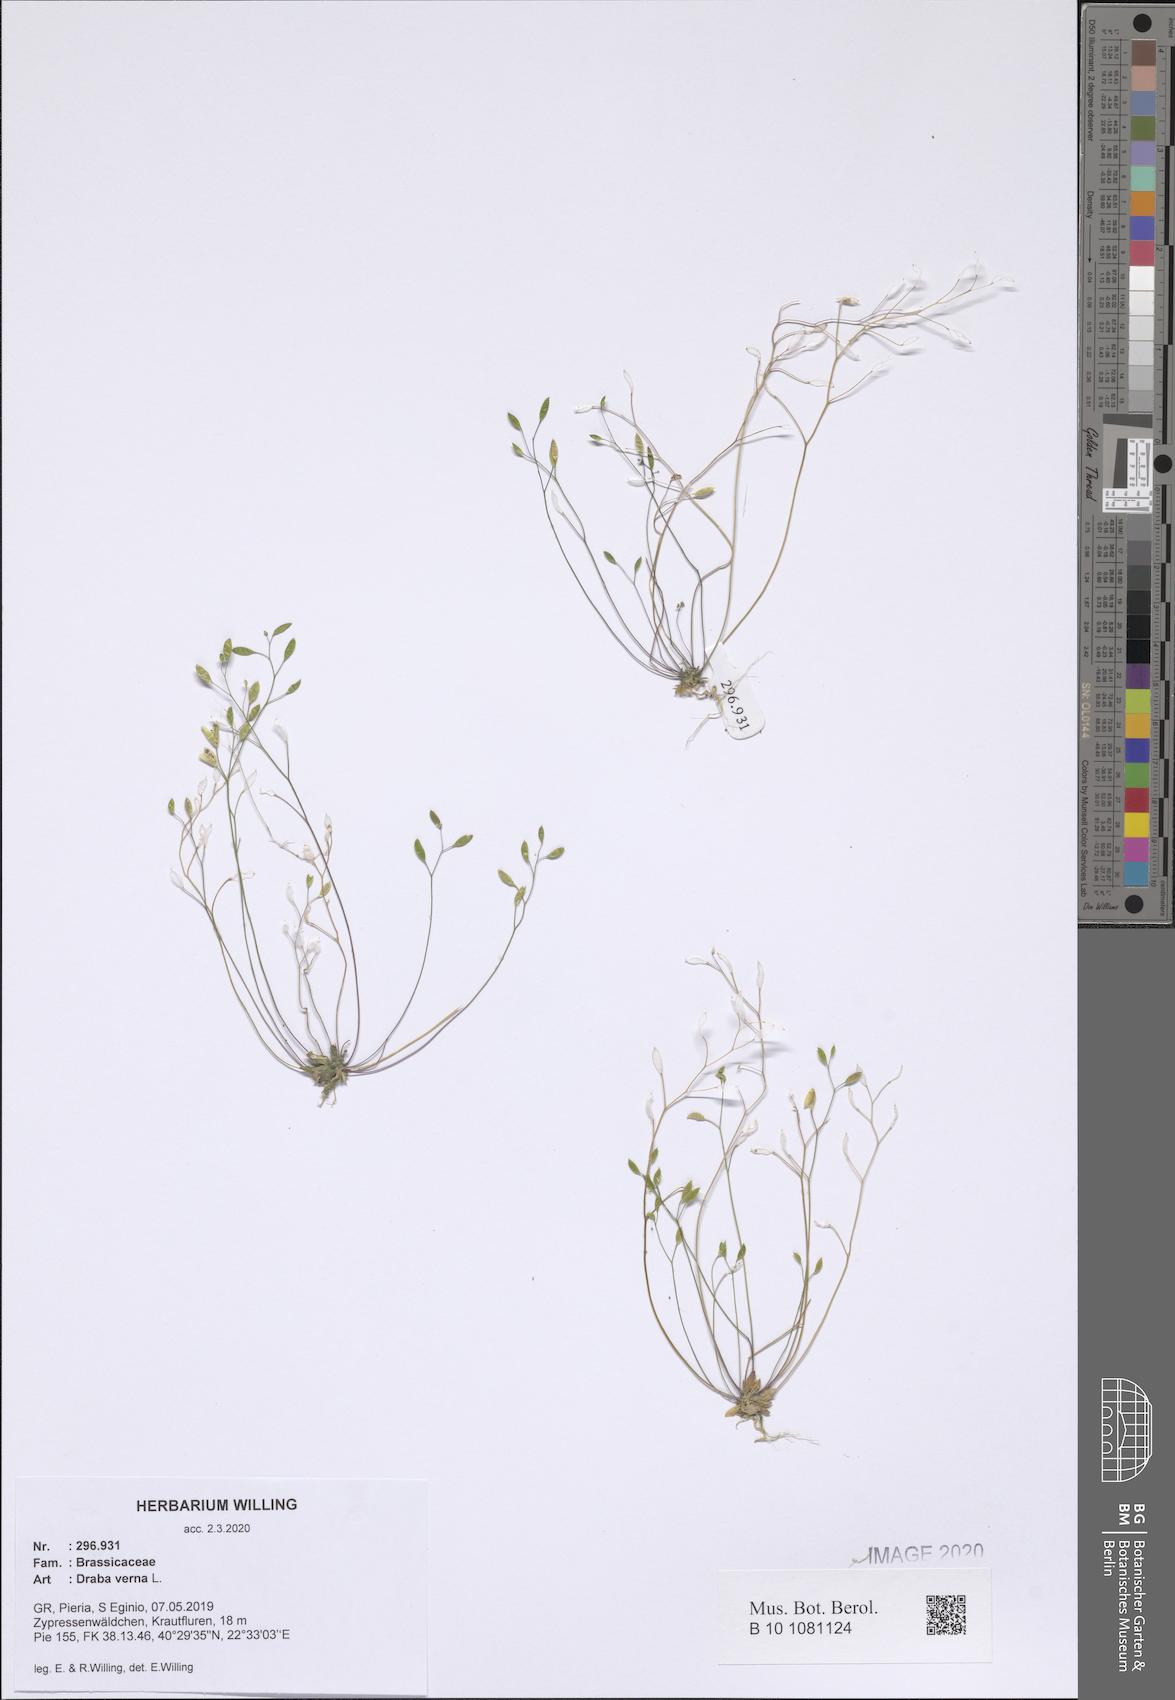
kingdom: Plantae
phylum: Tracheophyta
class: Magnoliopsida
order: Brassicales
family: Brassicaceae
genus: Draba
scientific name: Draba verna
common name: Spring draba
